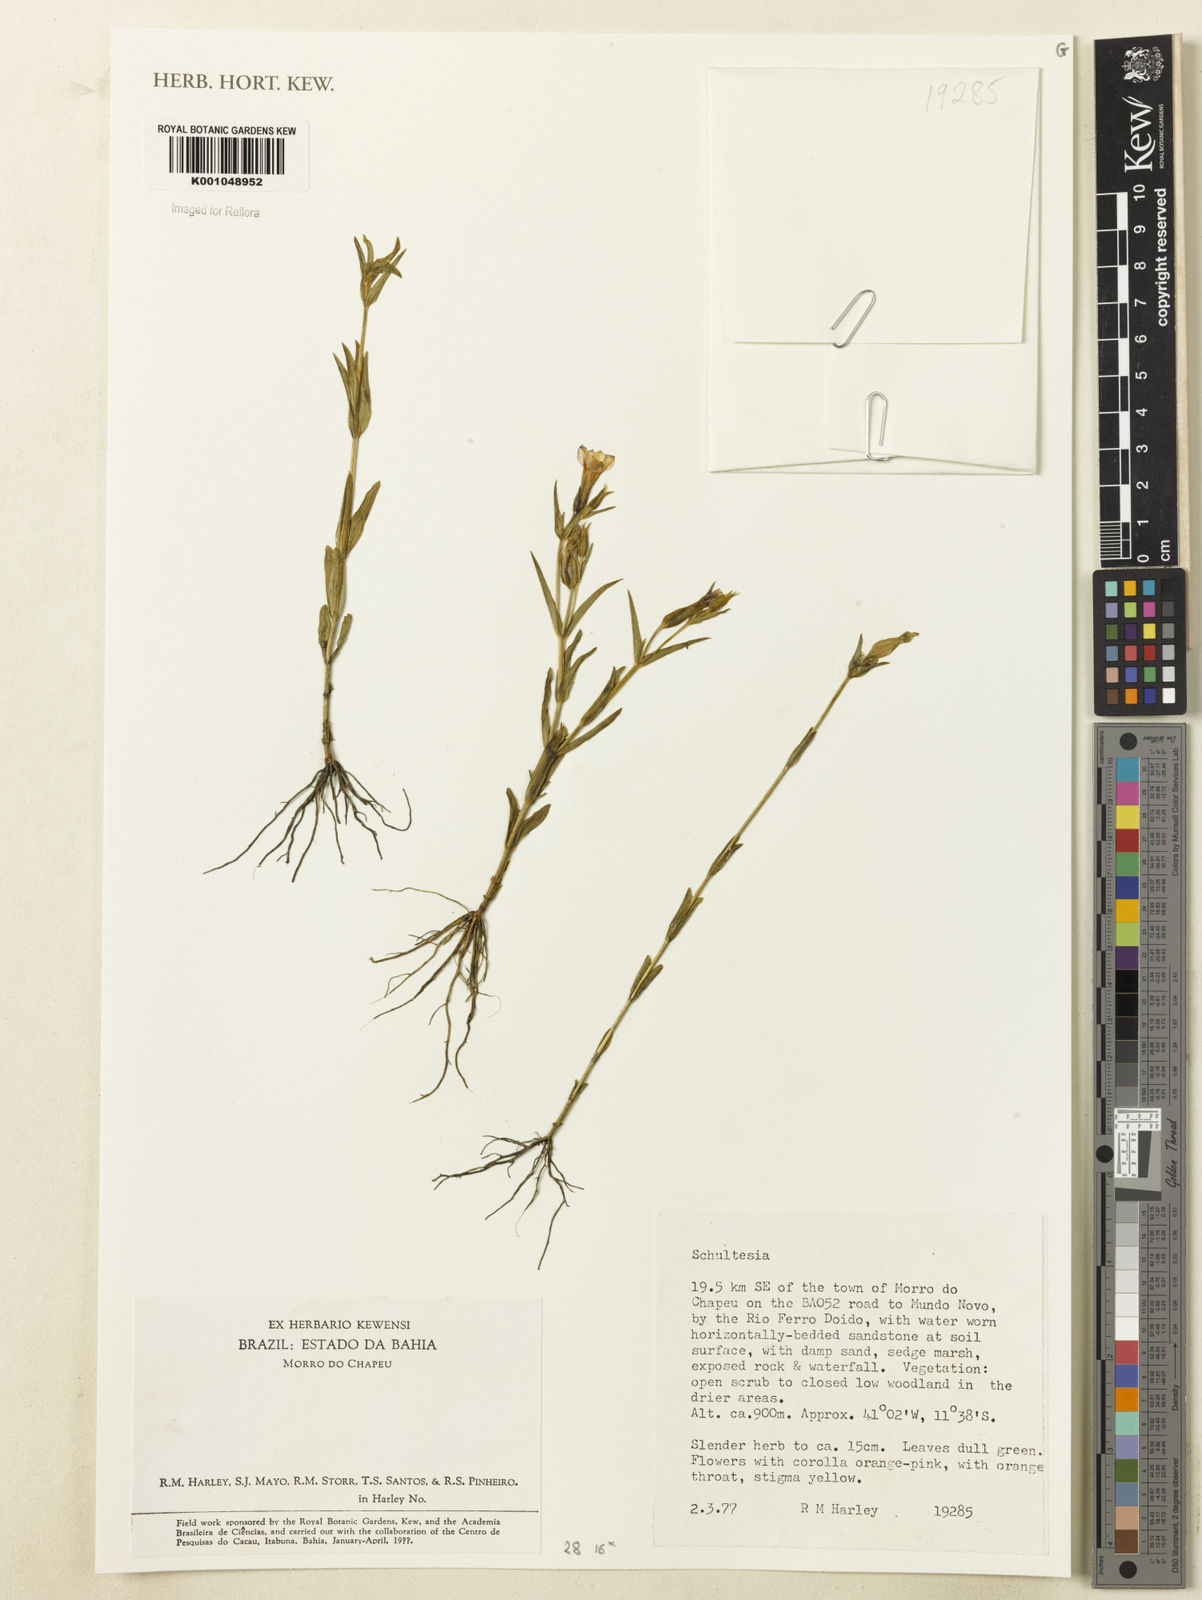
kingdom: Plantae
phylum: Tracheophyta
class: Magnoliopsida
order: Gentianales
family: Gentianaceae
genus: Schultesia
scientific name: Schultesia
